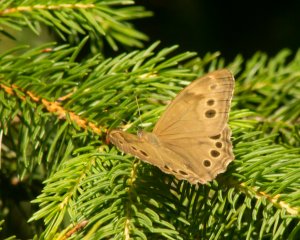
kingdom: Animalia
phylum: Arthropoda
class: Insecta
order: Lepidoptera
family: Nymphalidae
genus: Lethe
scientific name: Lethe anthedon
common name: Northern Pearly-Eye
